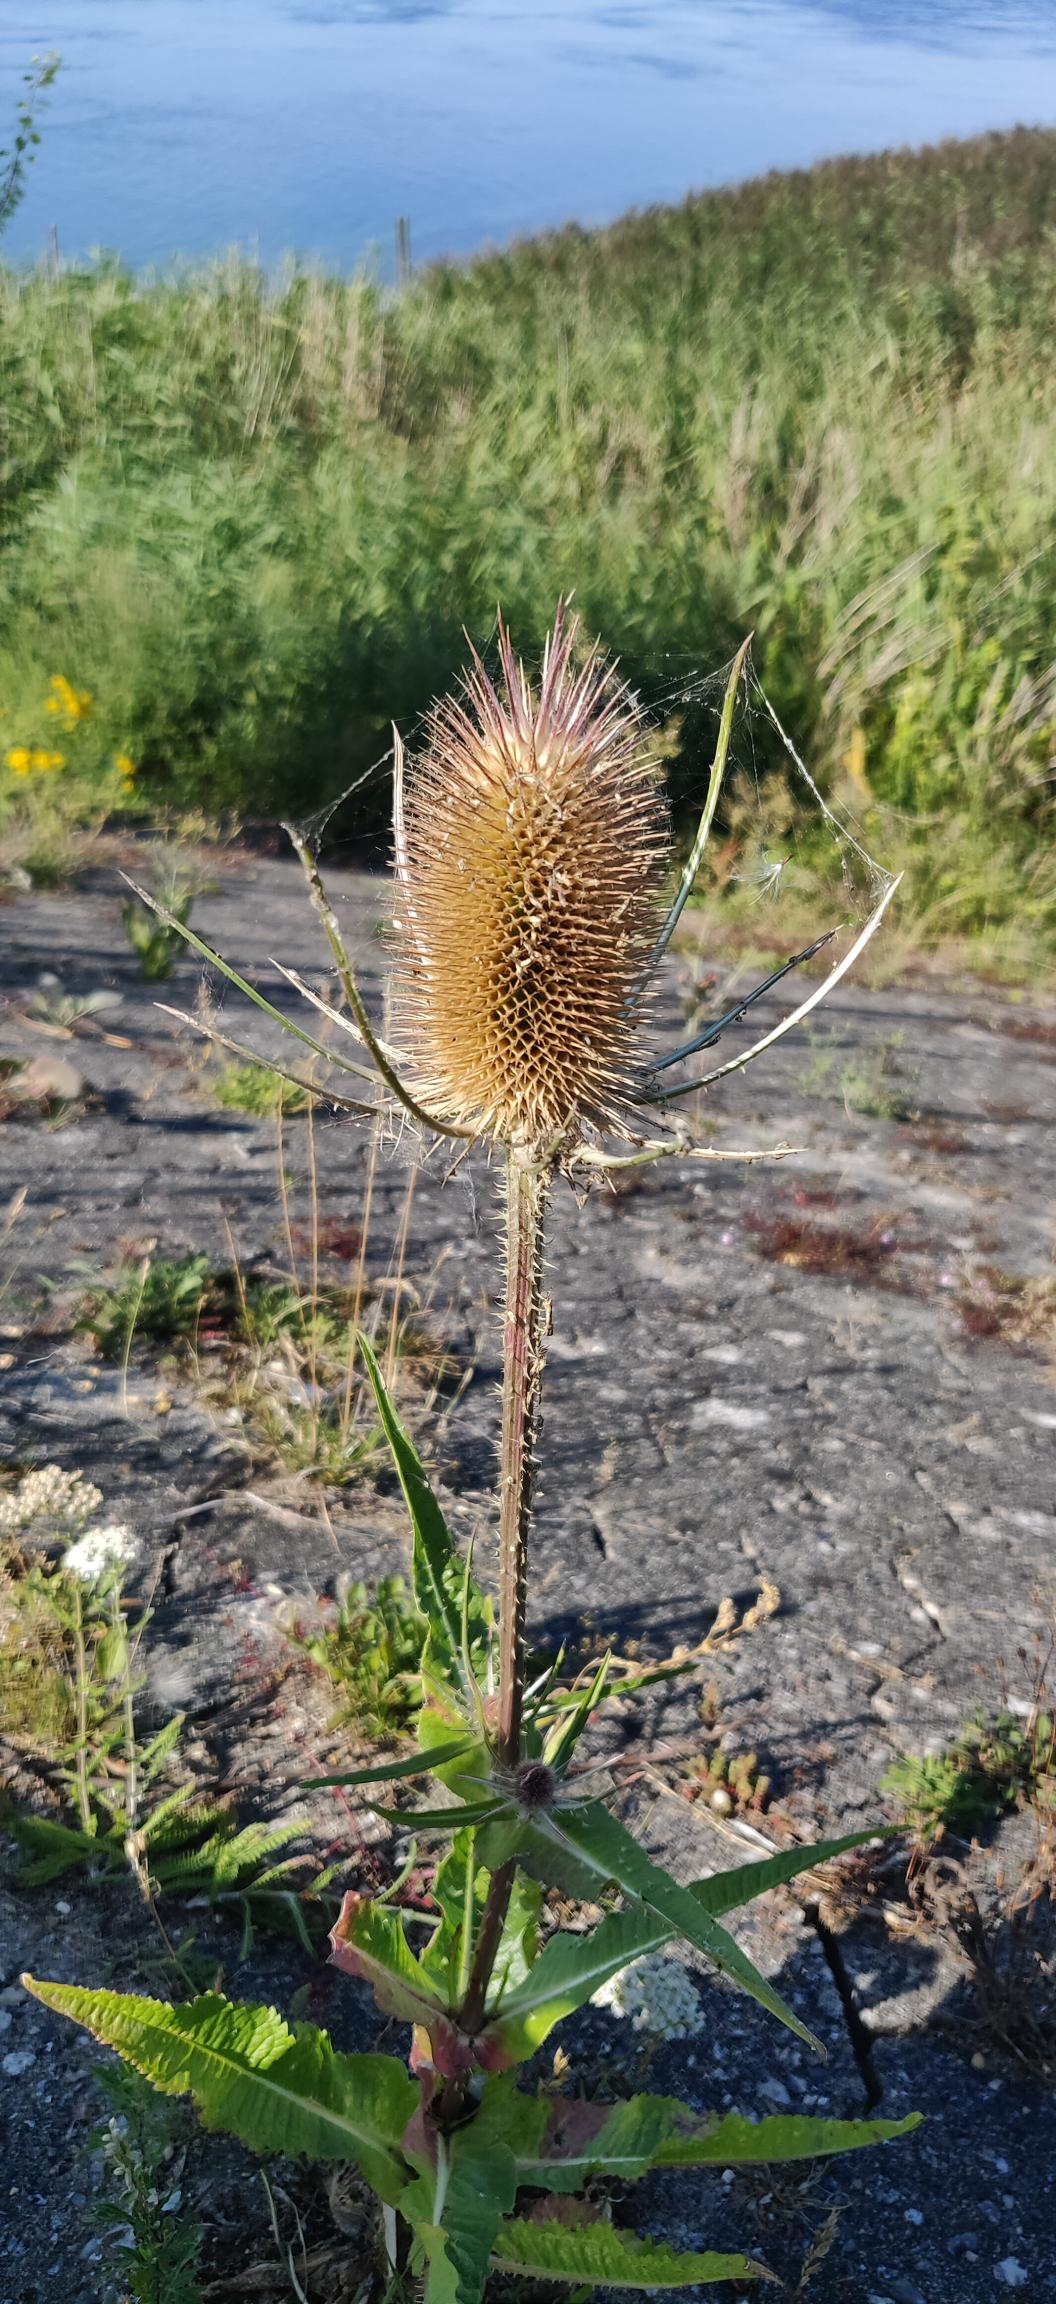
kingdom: Plantae
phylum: Tracheophyta
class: Magnoliopsida
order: Dipsacales
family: Caprifoliaceae
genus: Dipsacus
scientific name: Dipsacus fullonum
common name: Gærde-kartebolle
